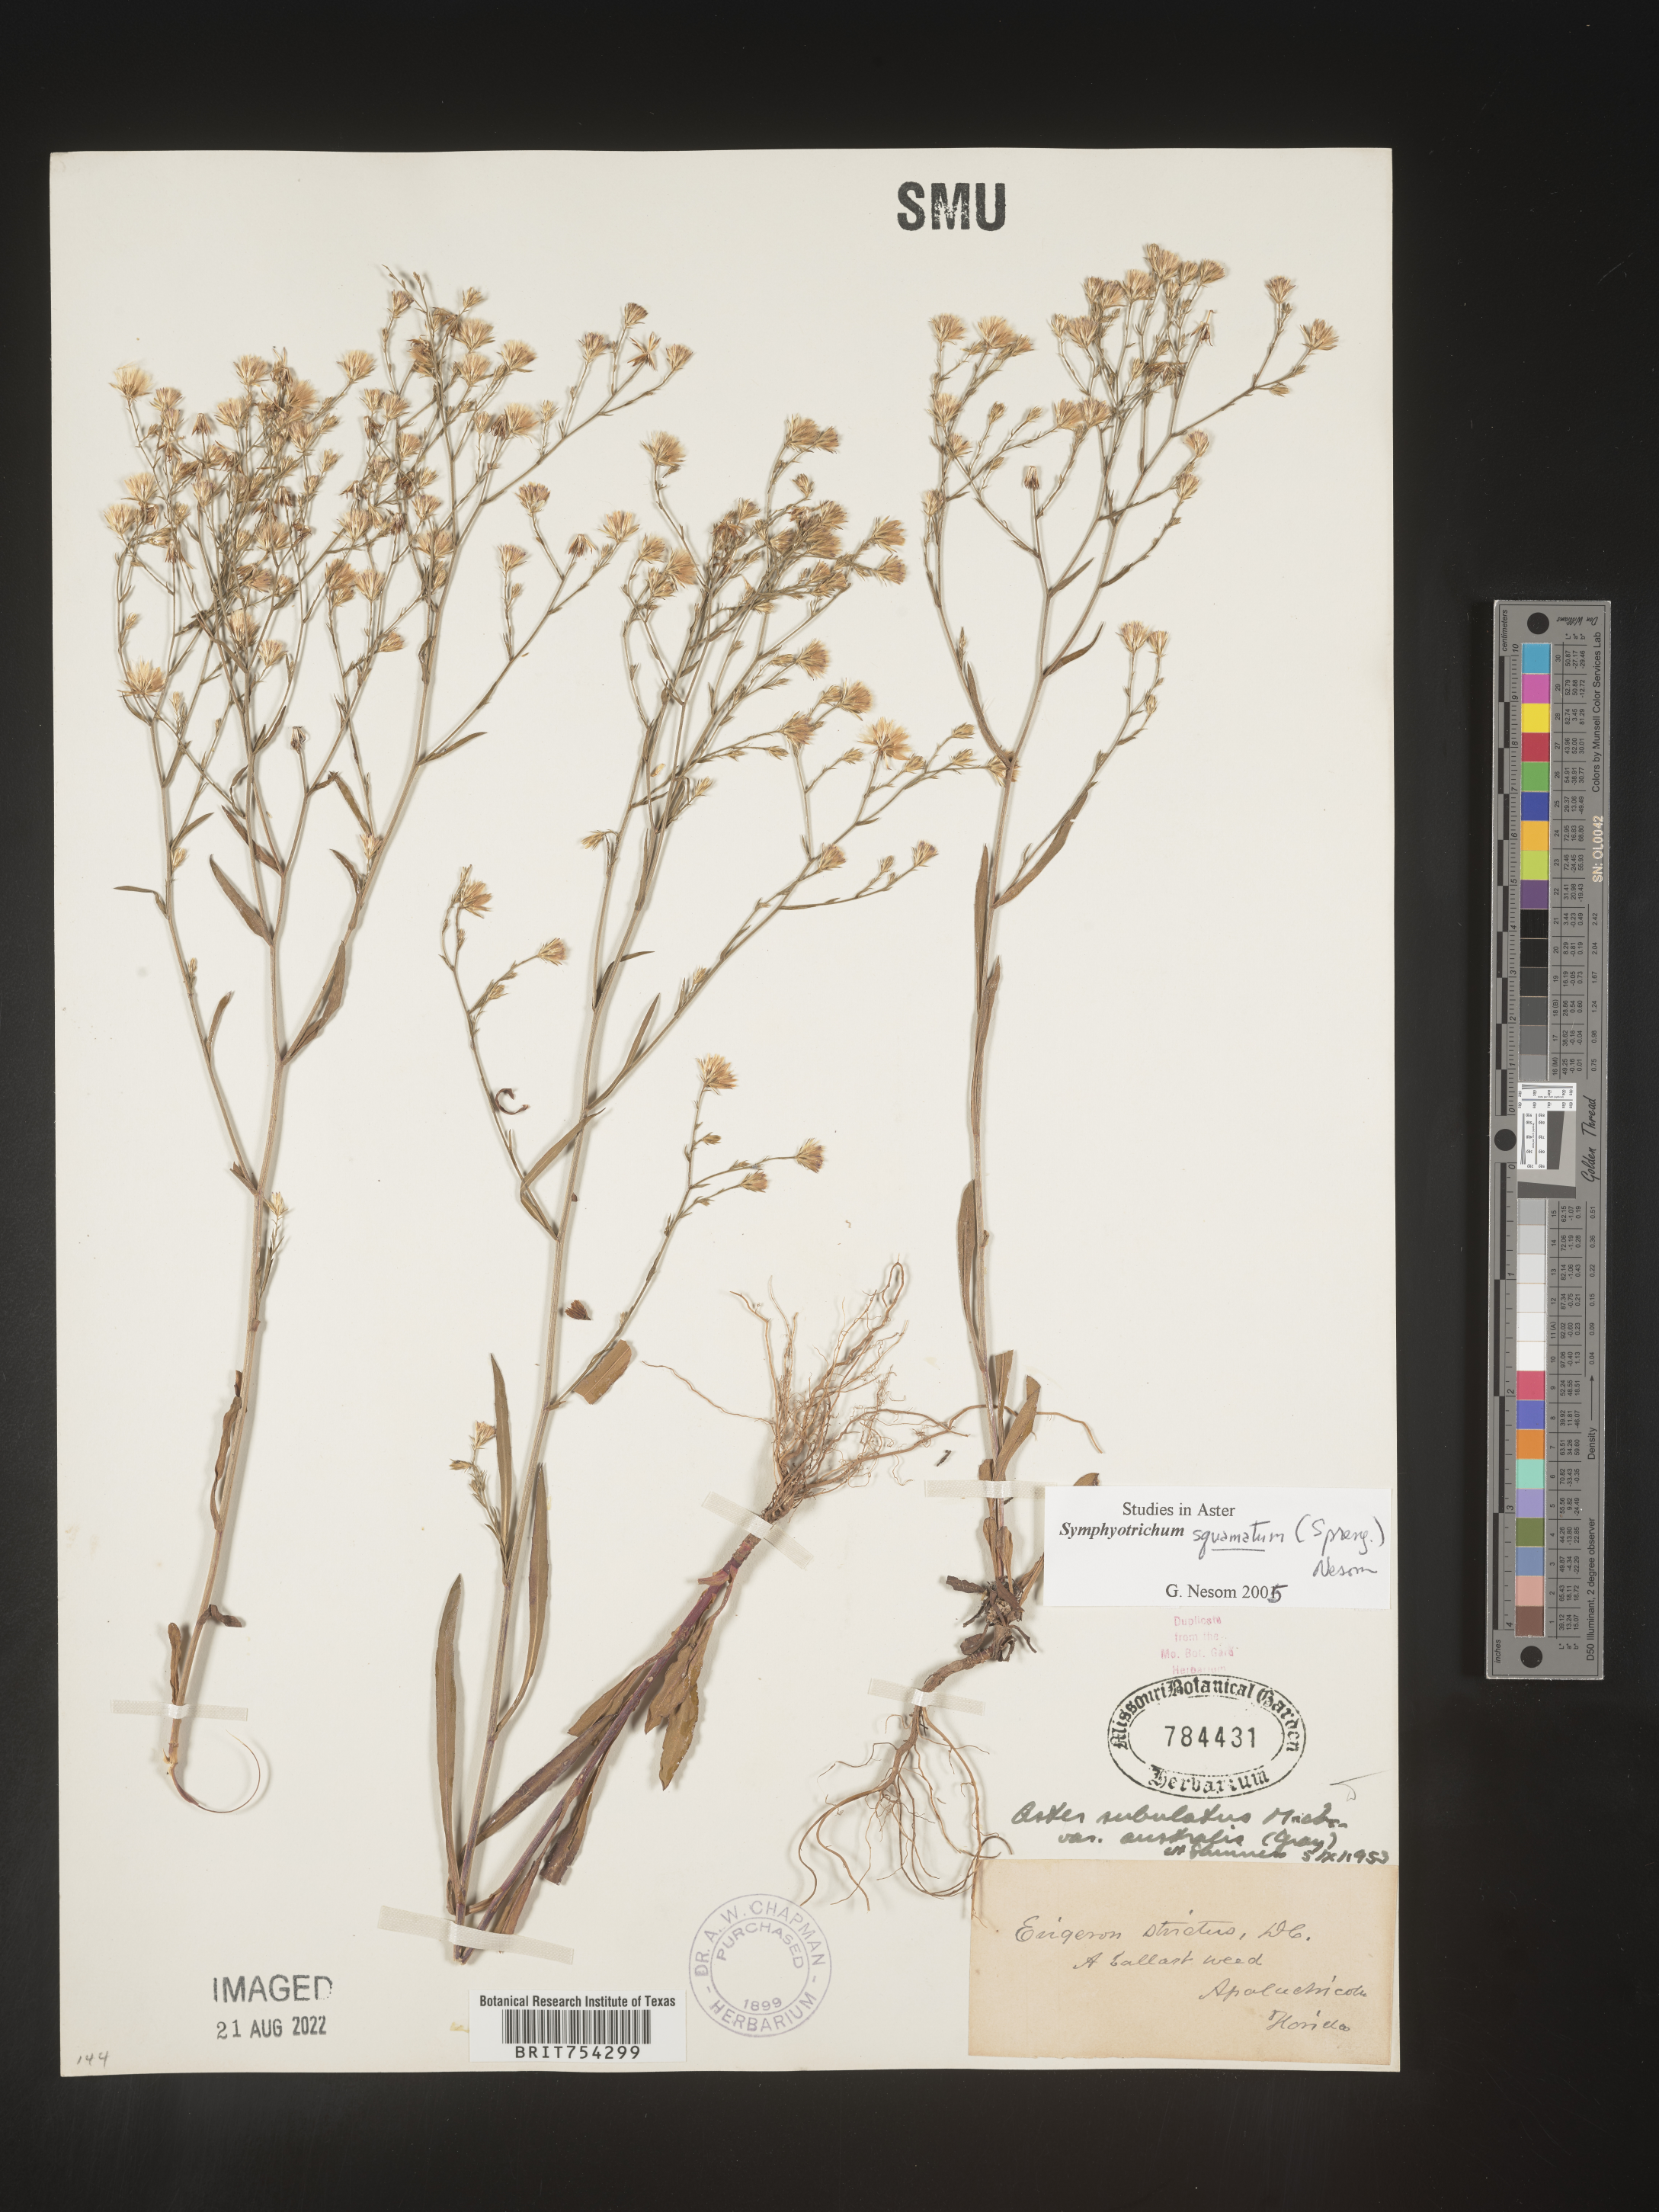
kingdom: Plantae
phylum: Tracheophyta
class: Magnoliopsida
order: Asterales
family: Asteraceae
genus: Symphyotrichum
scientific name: Symphyotrichum squamatum
